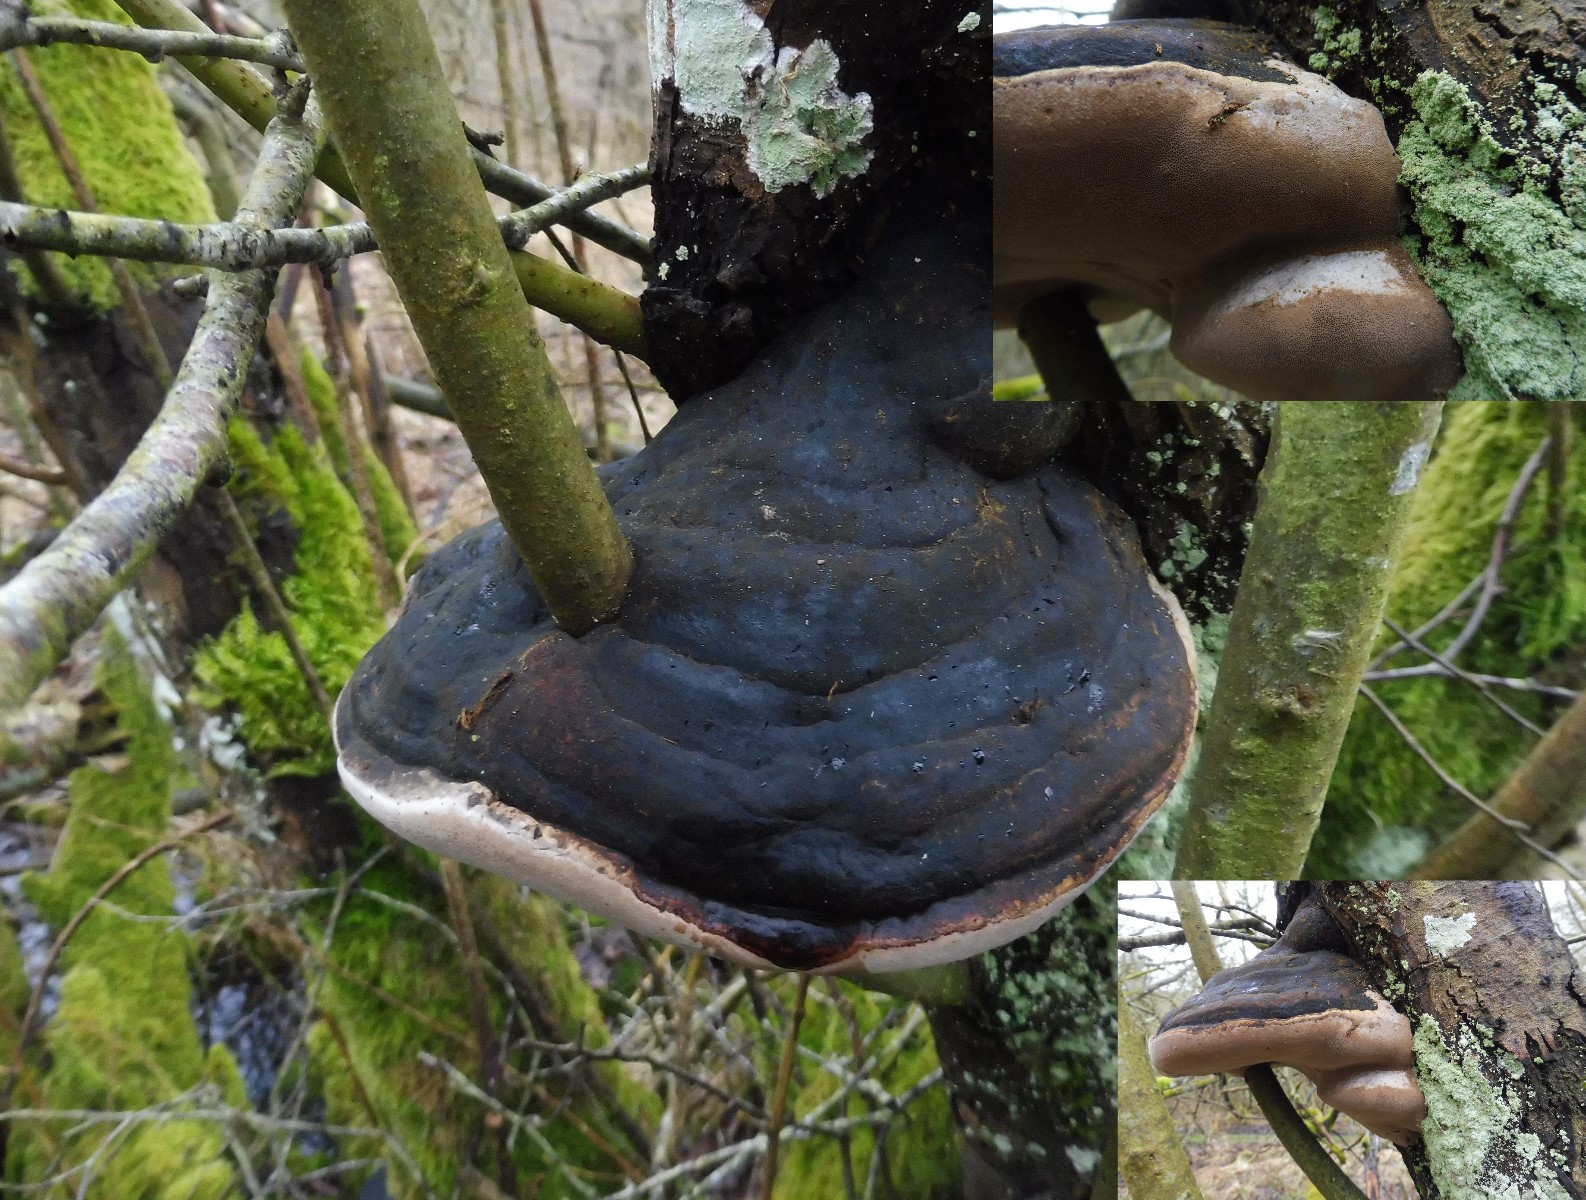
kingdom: Fungi
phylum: Basidiomycota
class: Agaricomycetes
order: Hymenochaetales
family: Hymenochaetaceae
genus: Phellinus
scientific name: Phellinus igniarius
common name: almindelig ildporesvamp
